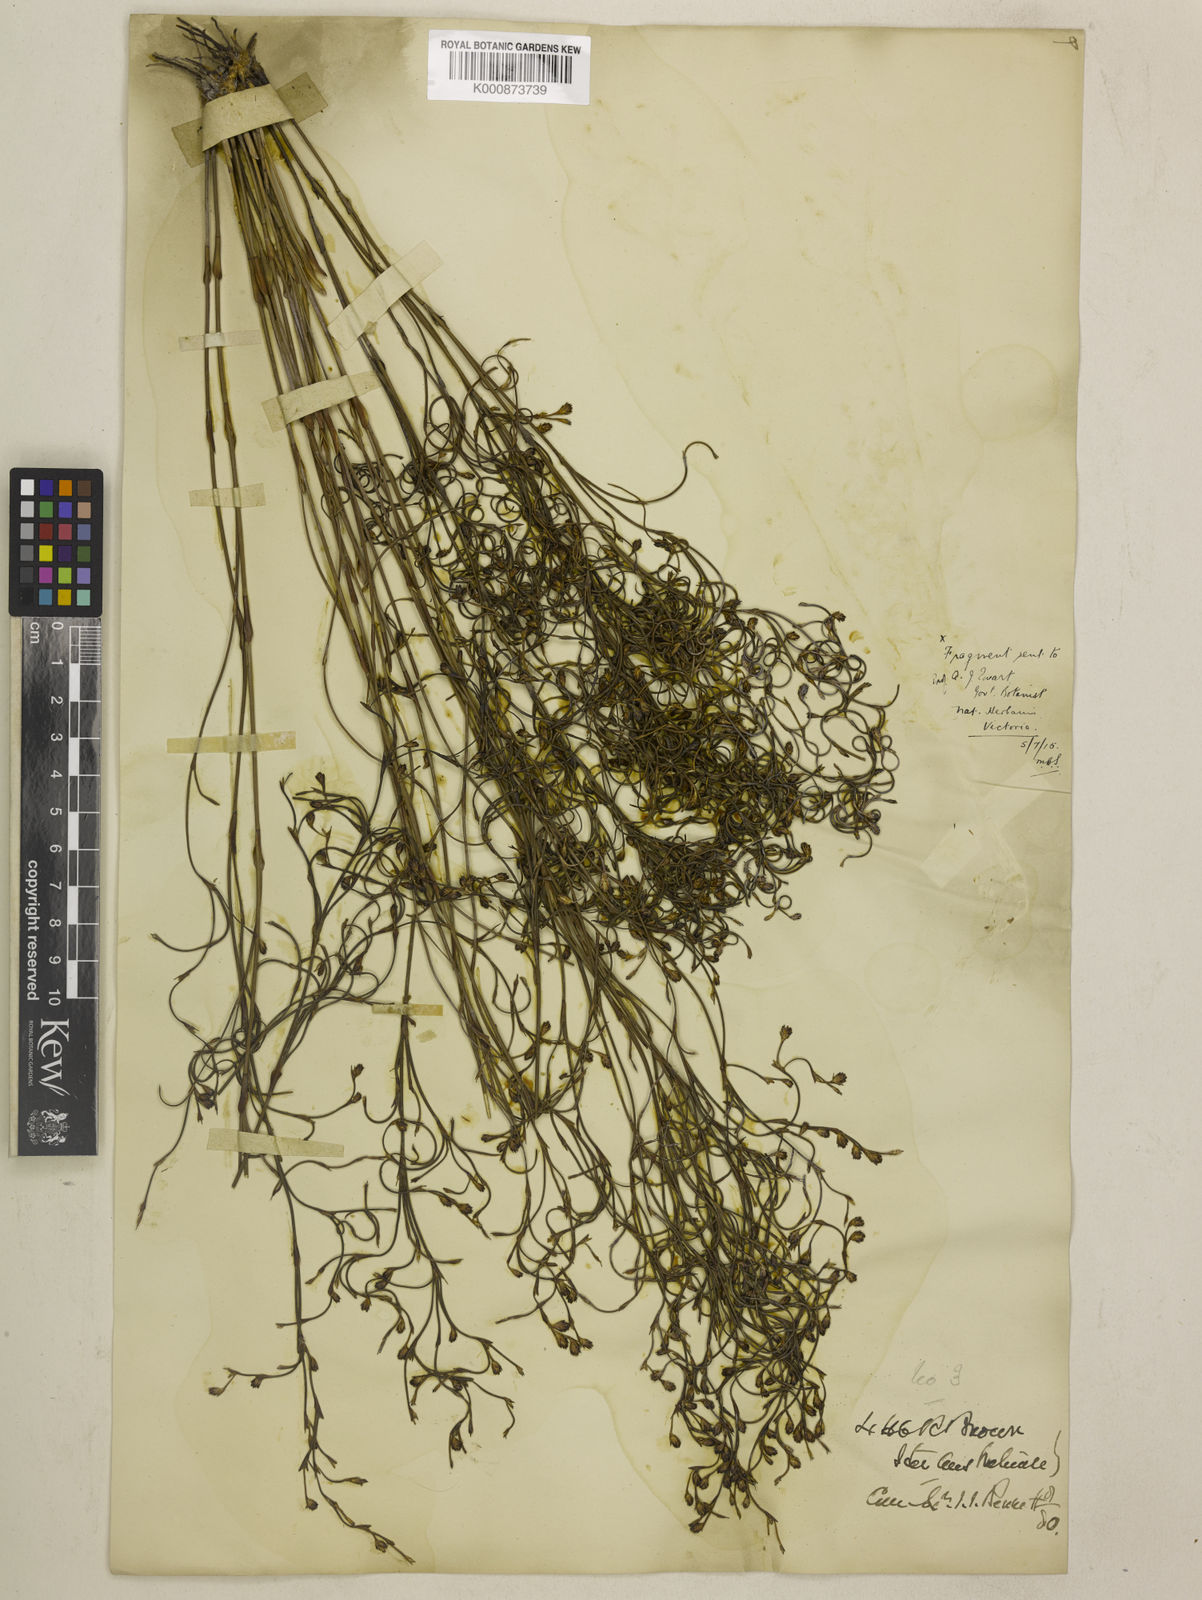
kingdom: Plantae
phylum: Tracheophyta
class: Liliopsida
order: Poales
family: Restionaceae
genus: Chordifex
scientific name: Chordifex crispatus
